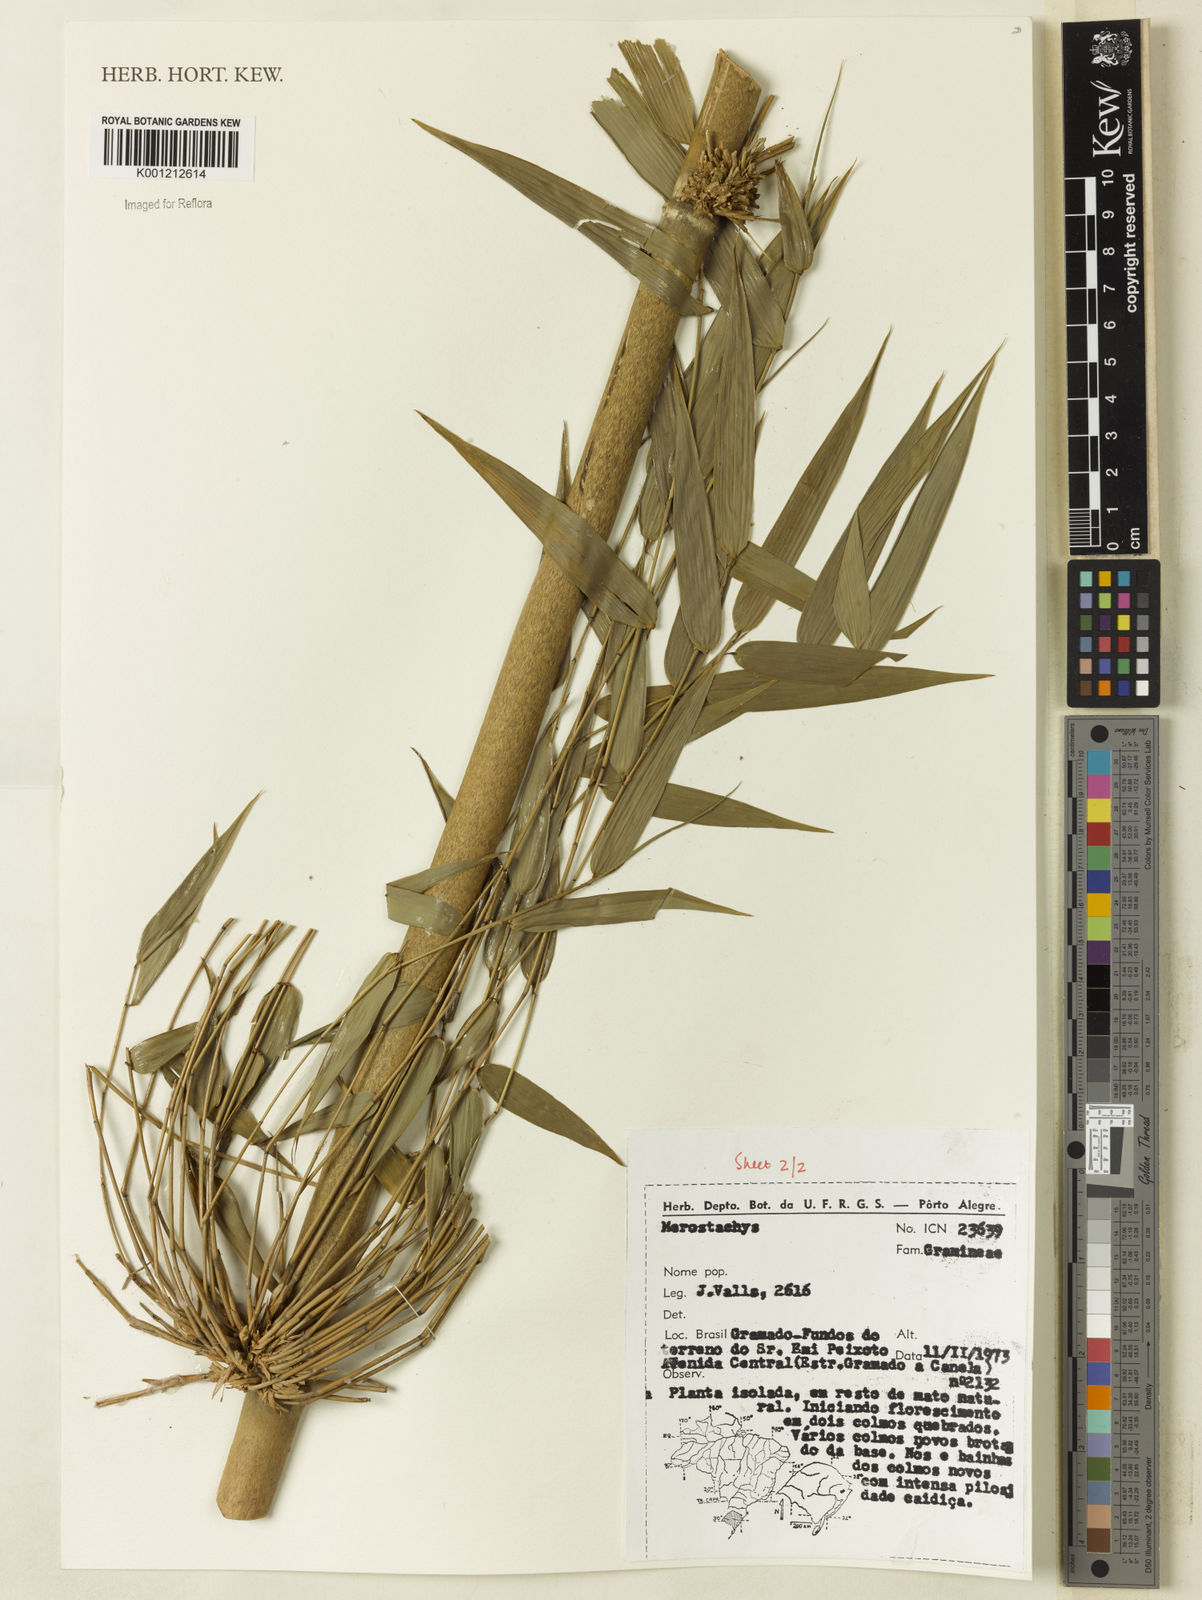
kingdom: Plantae
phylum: Tracheophyta
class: Liliopsida
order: Poales
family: Poaceae
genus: Merostachys
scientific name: Merostachys
